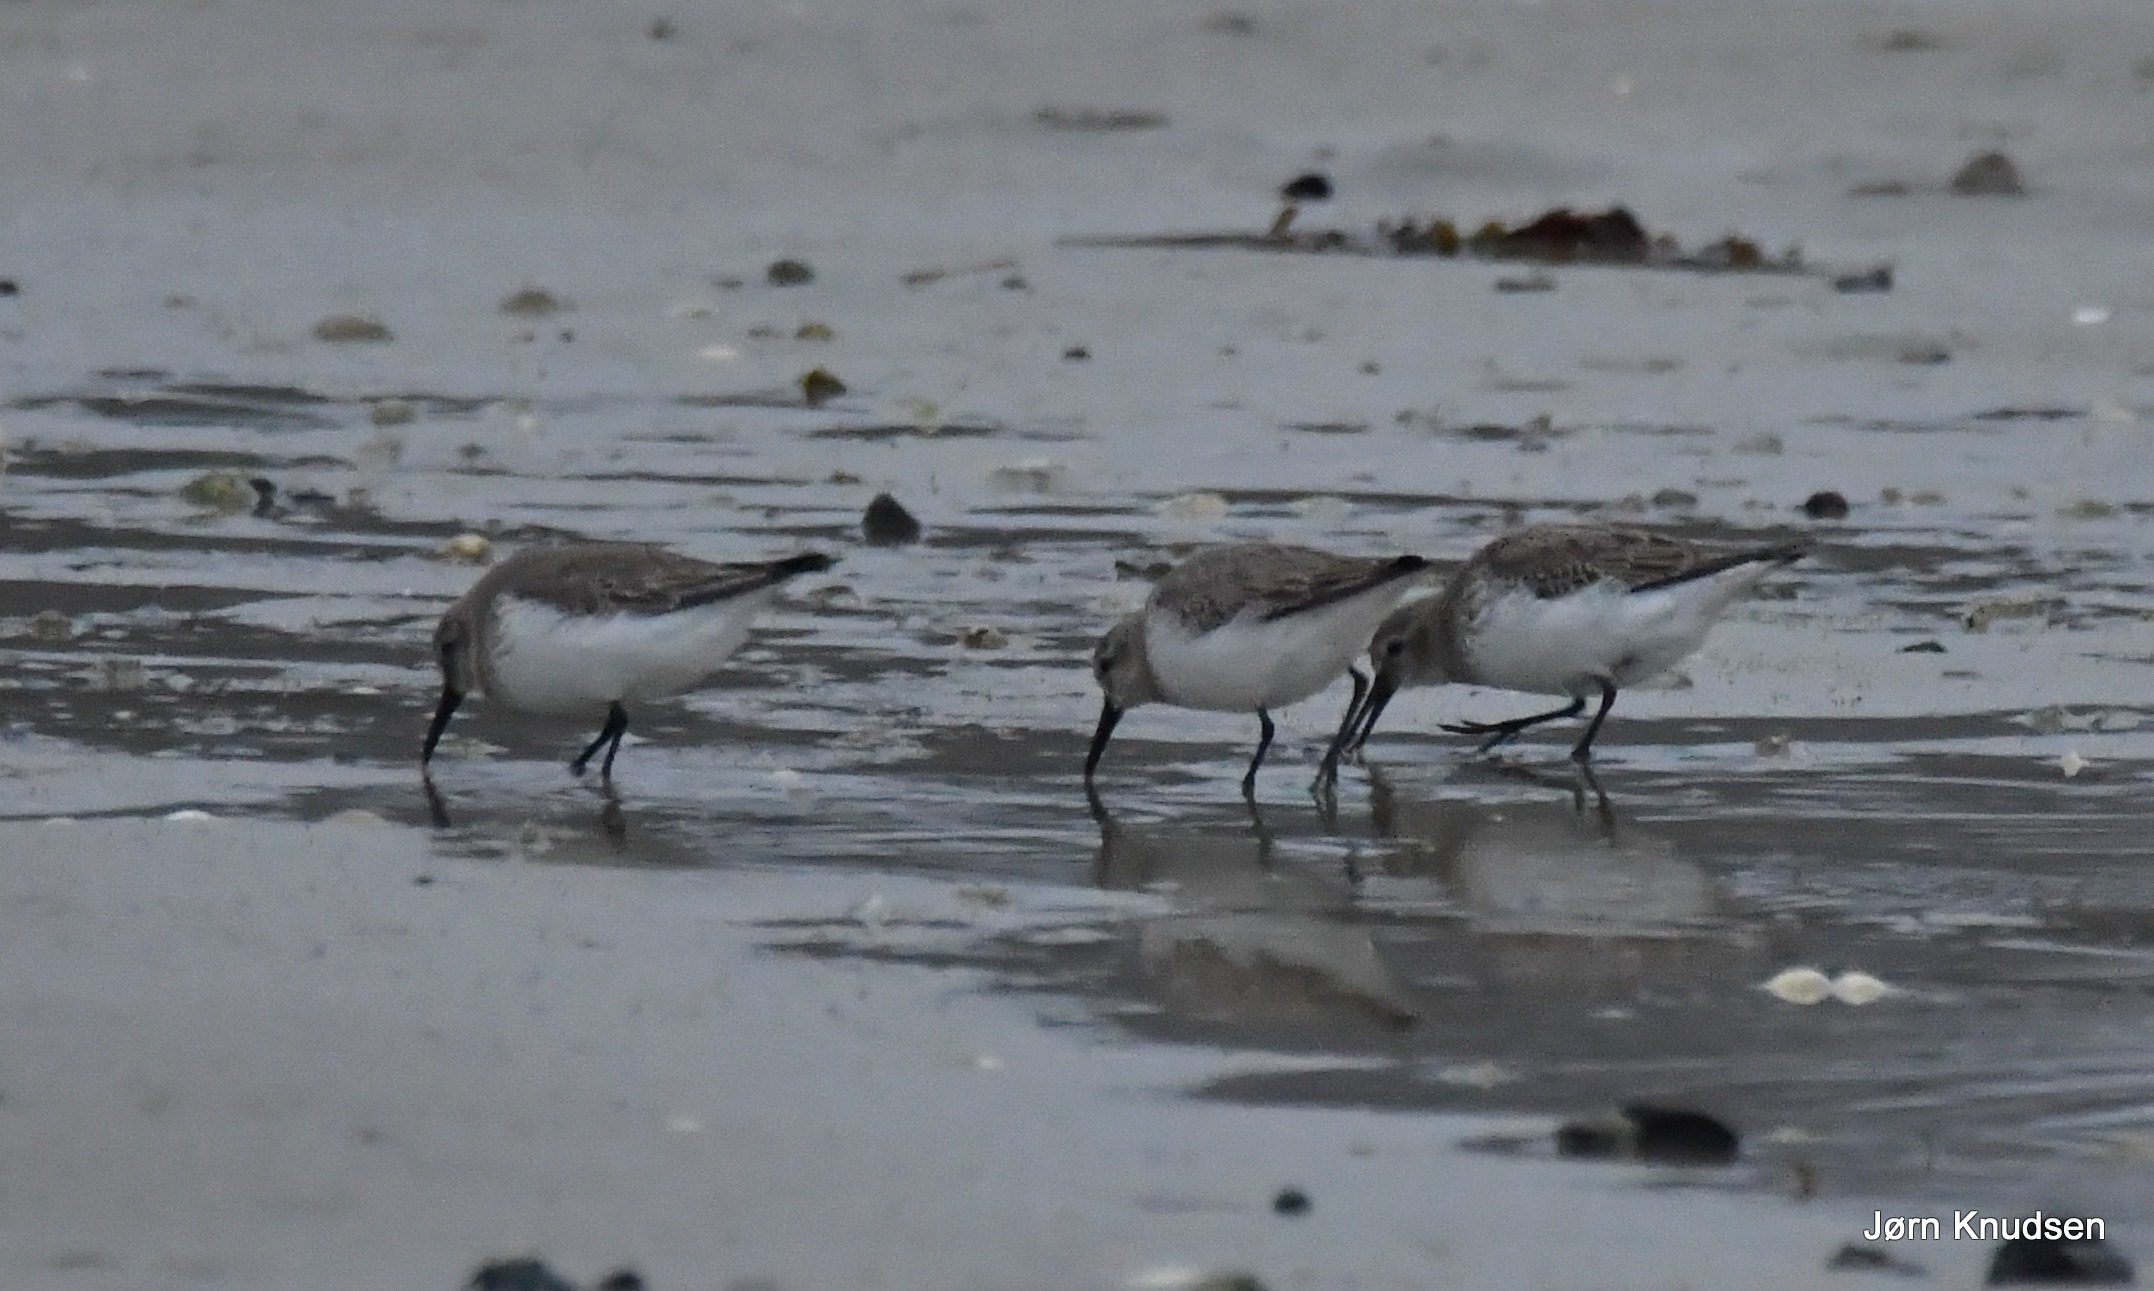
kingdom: Animalia
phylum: Chordata
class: Aves
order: Charadriiformes
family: Scolopacidae
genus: Calidris
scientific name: Calidris alpina
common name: Almindelig ryle
